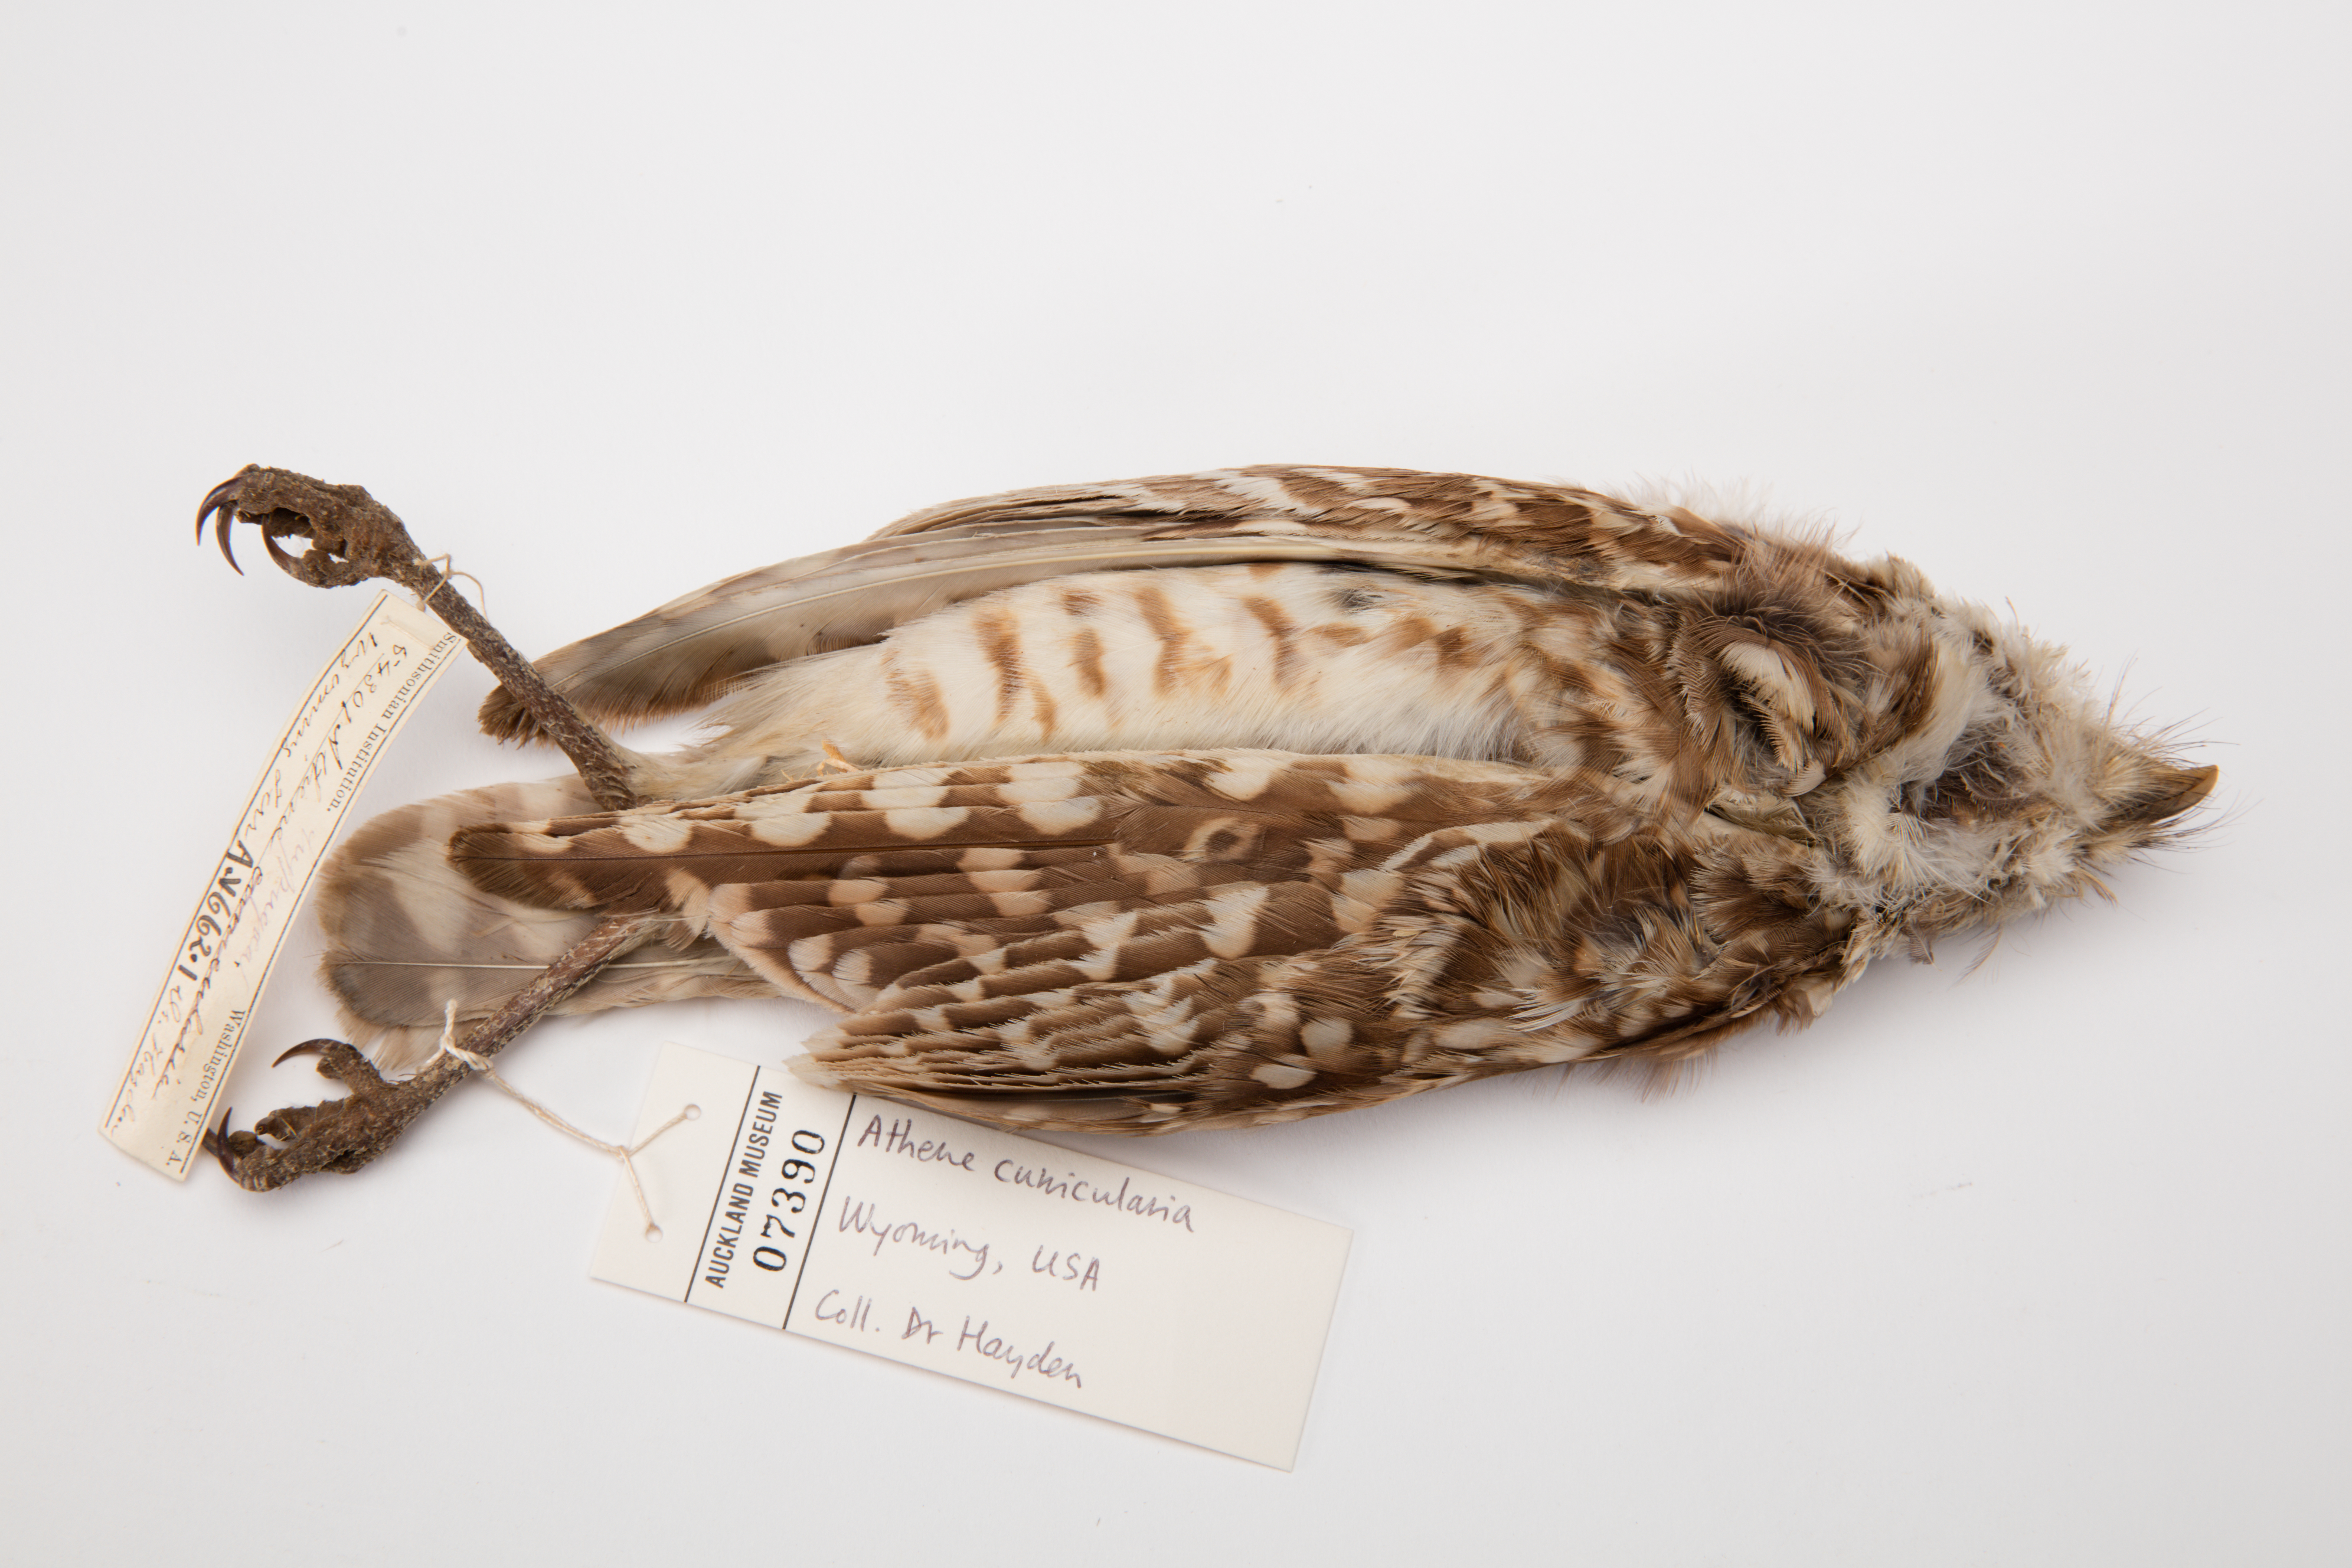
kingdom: Animalia
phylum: Chordata
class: Aves
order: Strigiformes
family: Strigidae
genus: Athene
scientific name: Athene cunicularia
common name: Burrowing owl
